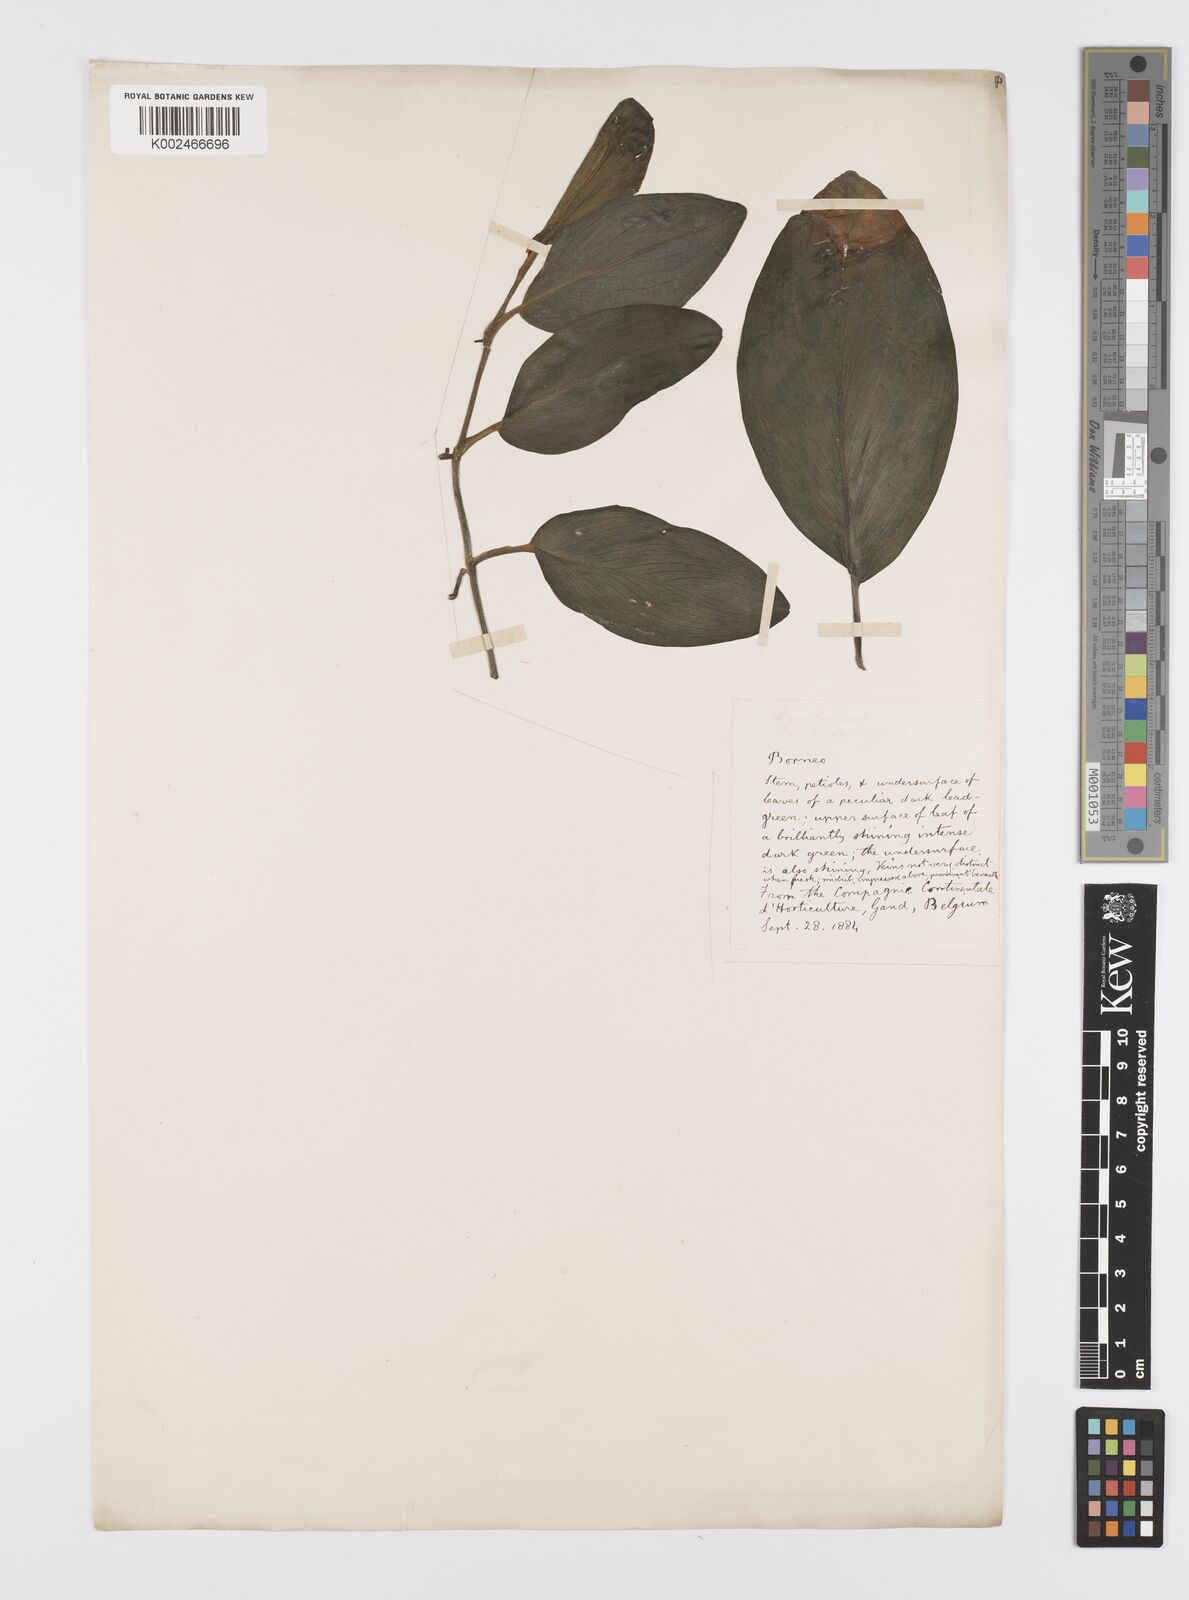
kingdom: Plantae
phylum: Tracheophyta
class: Liliopsida
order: Alismatales
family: Araceae
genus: Scindapsus
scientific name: Scindapsus
